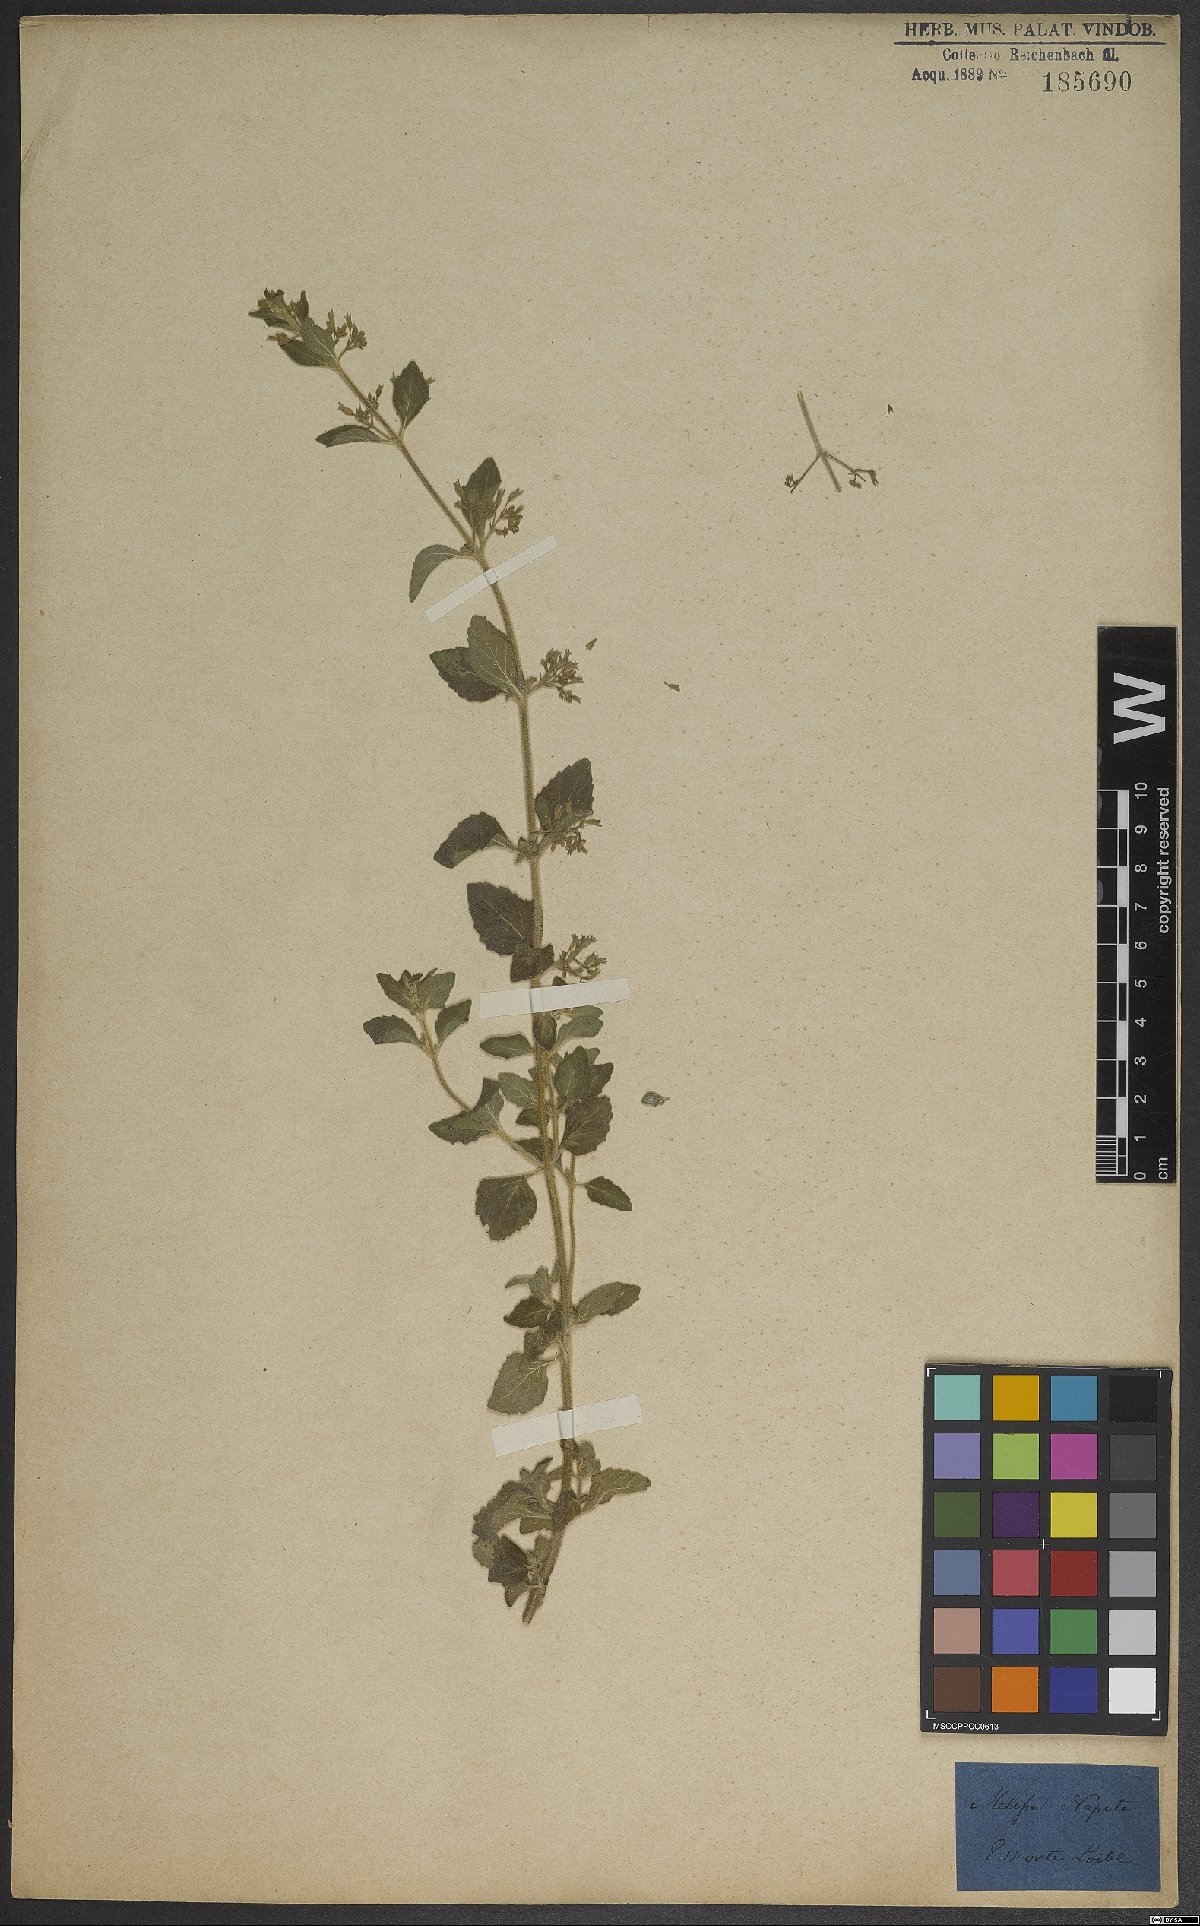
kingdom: Plantae
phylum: Tracheophyta
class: Magnoliopsida
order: Lamiales
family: Lamiaceae
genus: Clinopodium
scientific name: Clinopodium nepeta
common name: Lesser calamint
